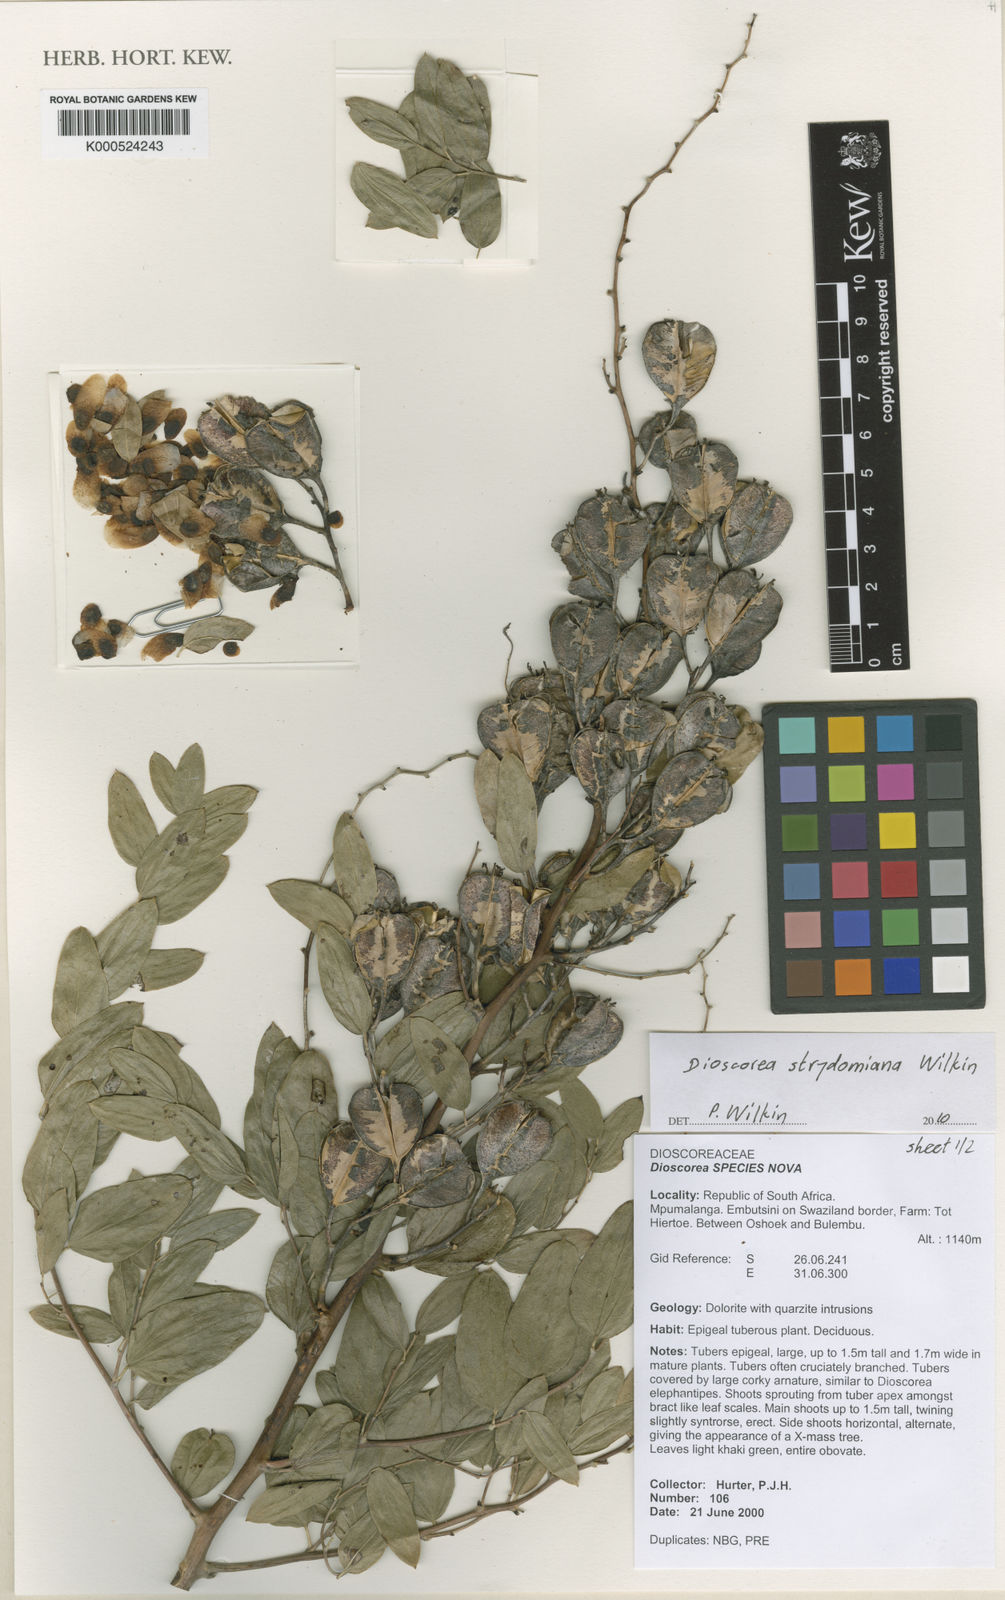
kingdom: Plantae
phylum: Tracheophyta
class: Liliopsida
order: Dioscoreales
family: Dioscoreaceae
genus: Dioscorea
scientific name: Dioscorea strydomiana
